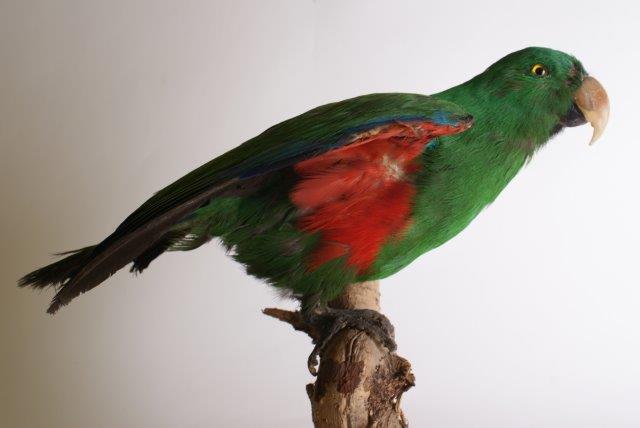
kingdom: Animalia
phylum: Chordata
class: Aves
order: Psittaciformes
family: Psittacidae
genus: Eclectus
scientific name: Eclectus
